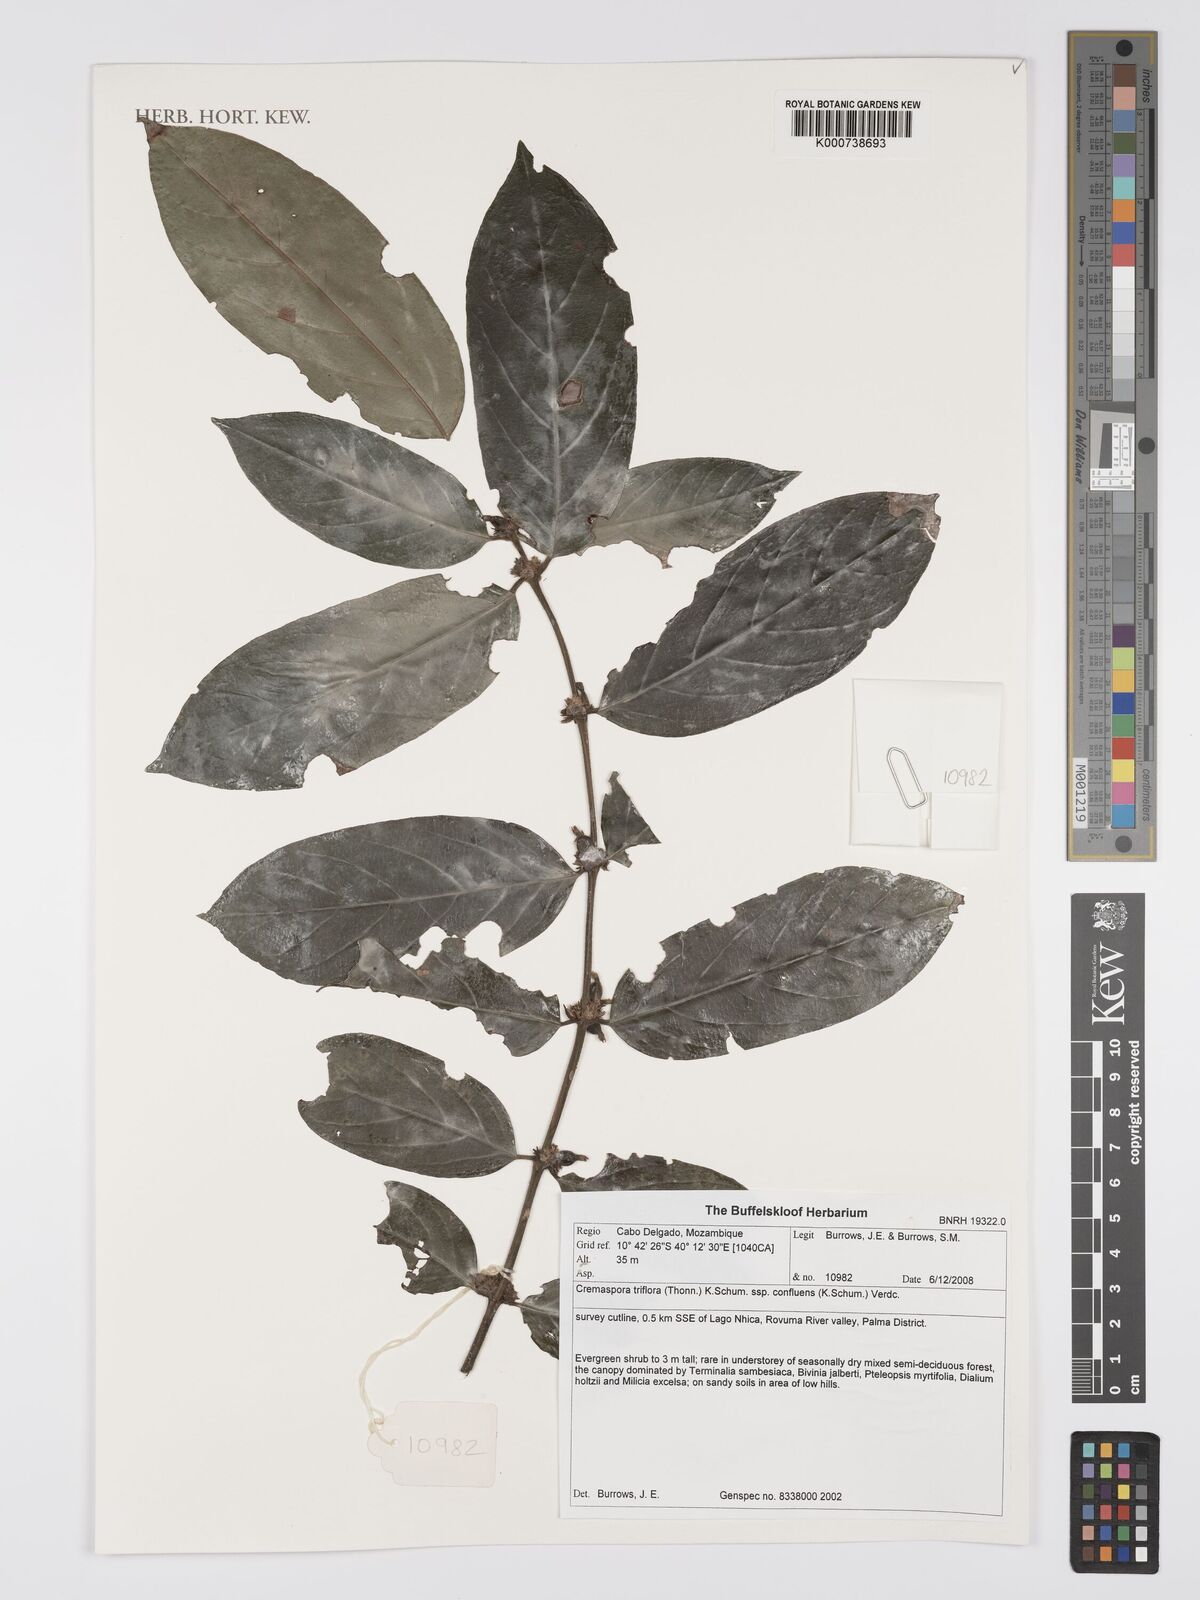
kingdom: Plantae
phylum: Tracheophyta
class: Magnoliopsida
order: Gentianales
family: Rubiaceae
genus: Cremaspora
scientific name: Cremaspora triflora
